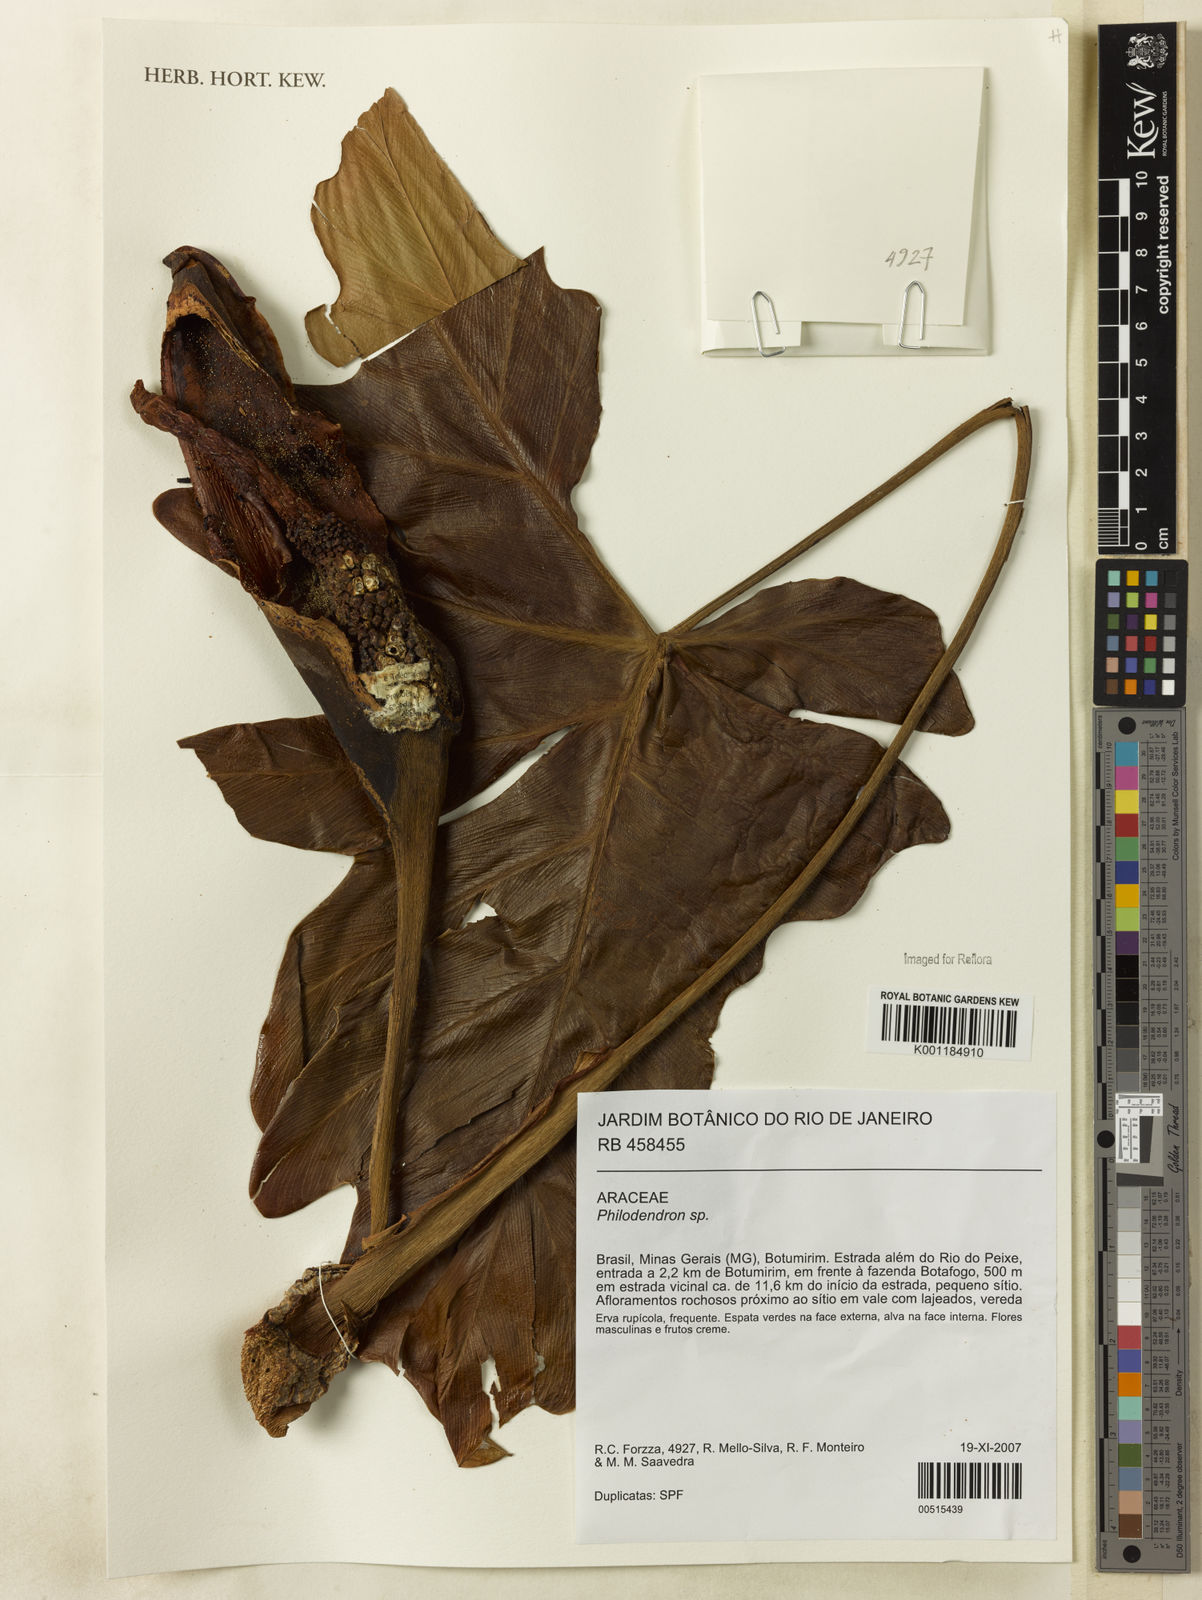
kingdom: Plantae
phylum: Tracheophyta
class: Liliopsida
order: Alismatales
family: Araceae
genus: Thaumatophyllum
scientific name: Thaumatophyllum undulatum
